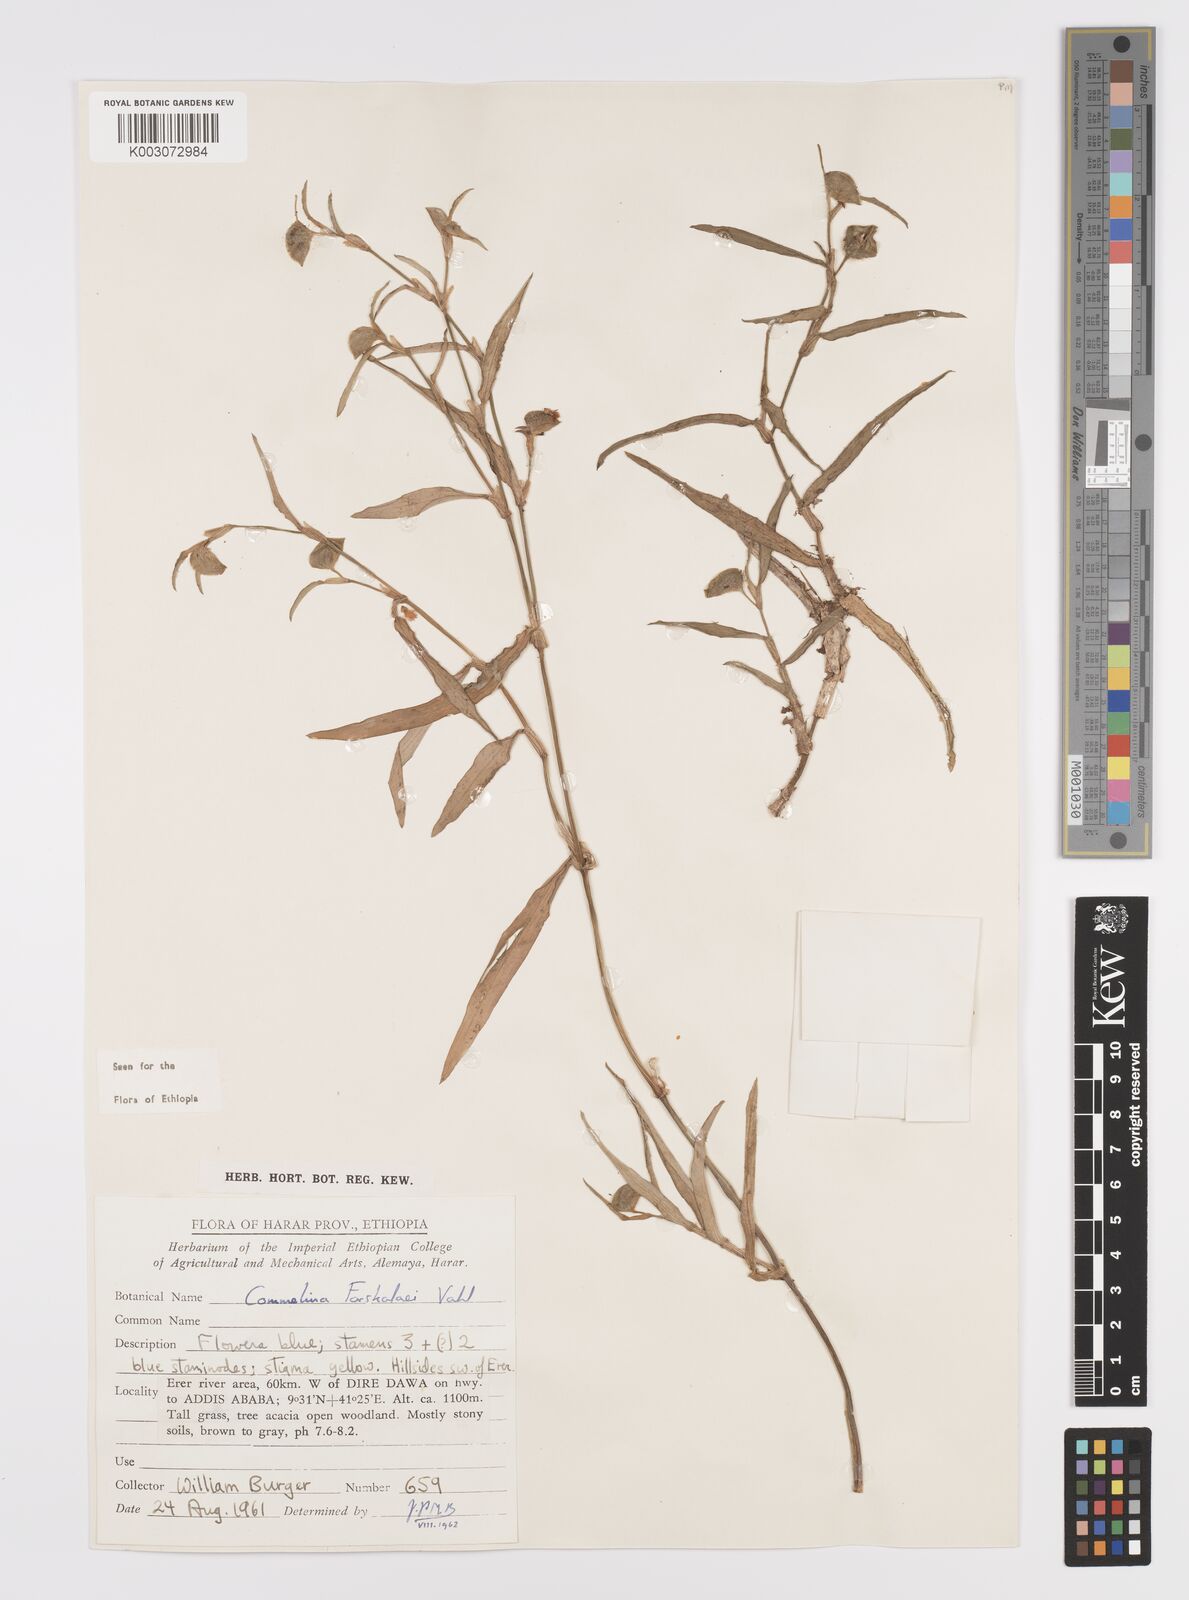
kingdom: Plantae
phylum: Tracheophyta
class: Liliopsida
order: Commelinales
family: Commelinaceae
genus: Commelina
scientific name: Commelina forskaolii
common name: Rat's ear
